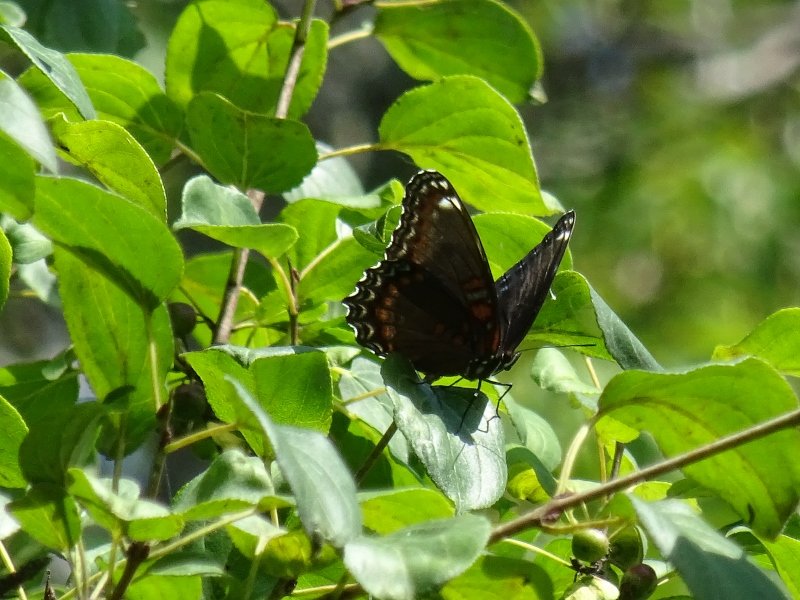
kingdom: Animalia
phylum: Arthropoda
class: Insecta
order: Lepidoptera
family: Nymphalidae
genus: Limenitis
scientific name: Limenitis astyanax
